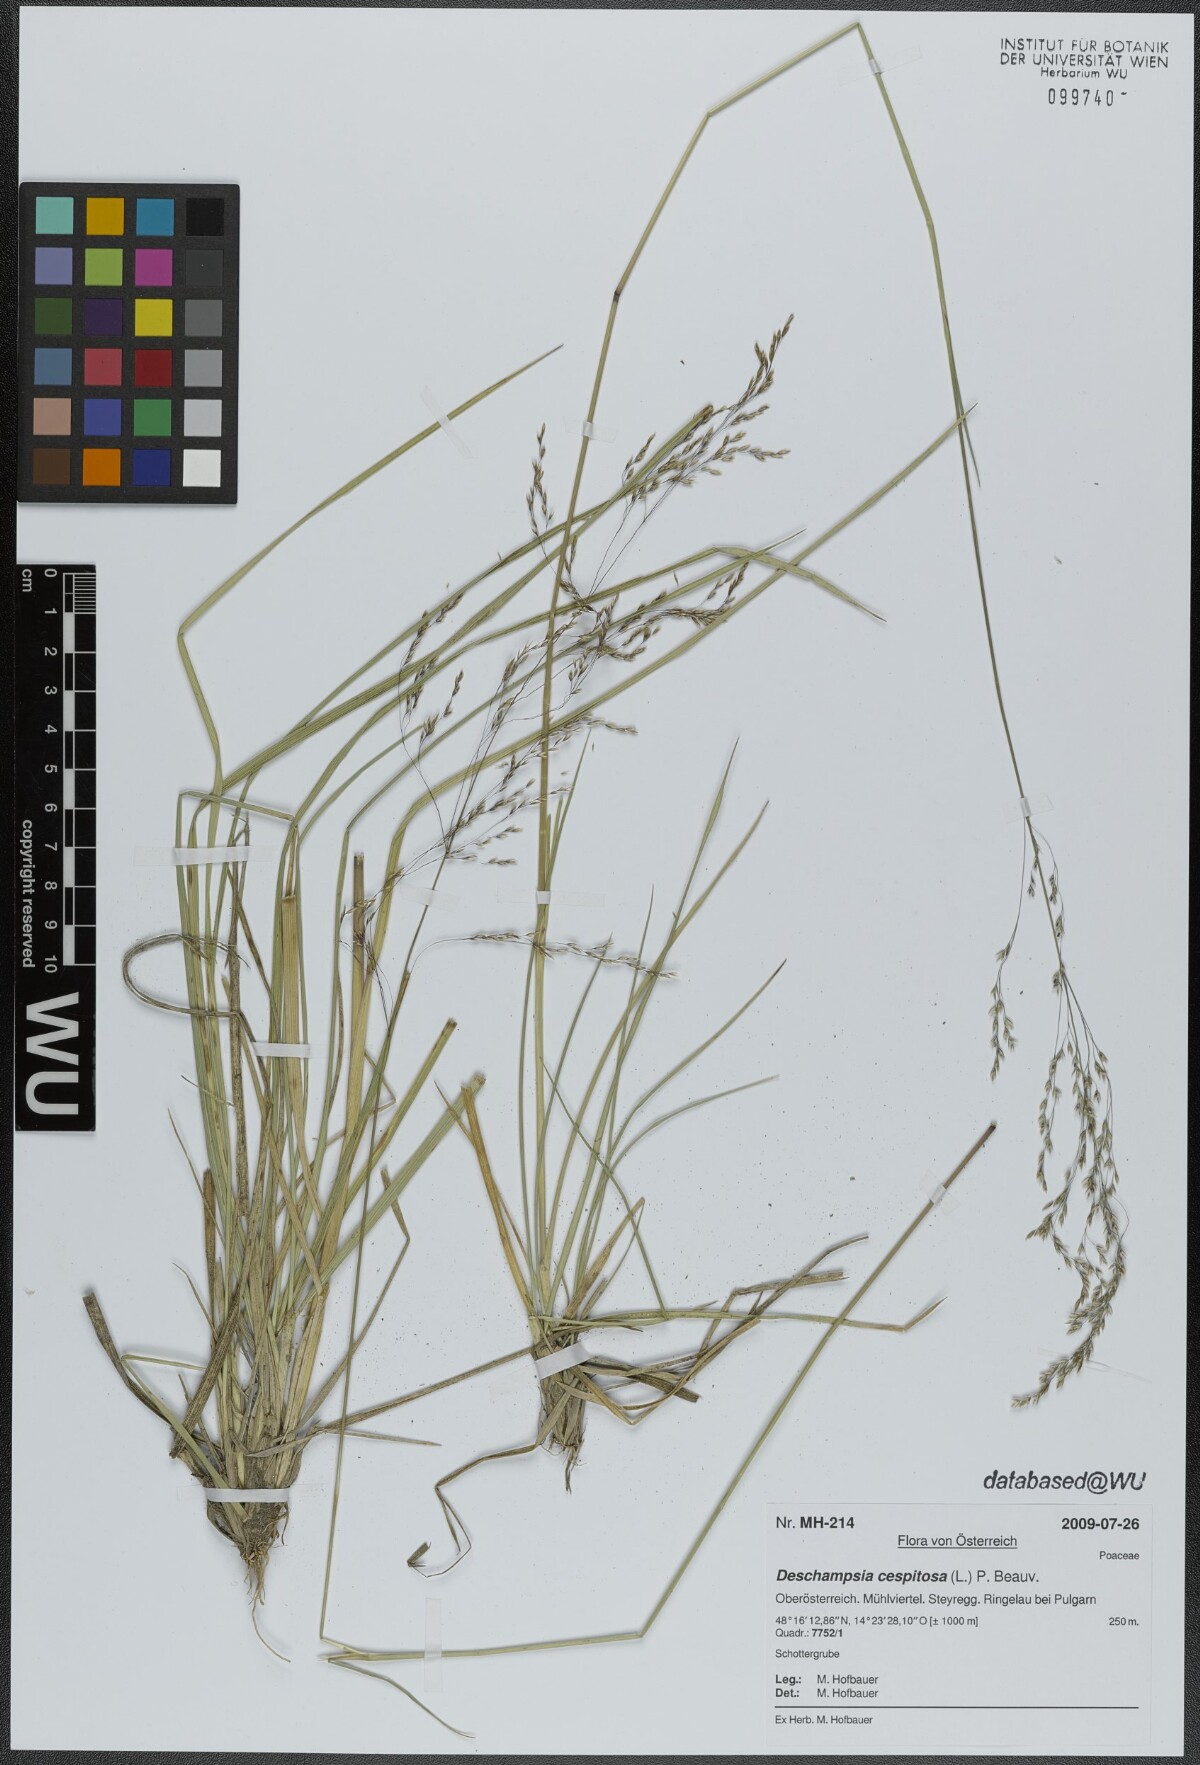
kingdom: Plantae
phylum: Tracheophyta
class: Liliopsida
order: Poales
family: Poaceae
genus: Deschampsia
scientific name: Deschampsia cespitosa
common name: Tufted hair-grass
